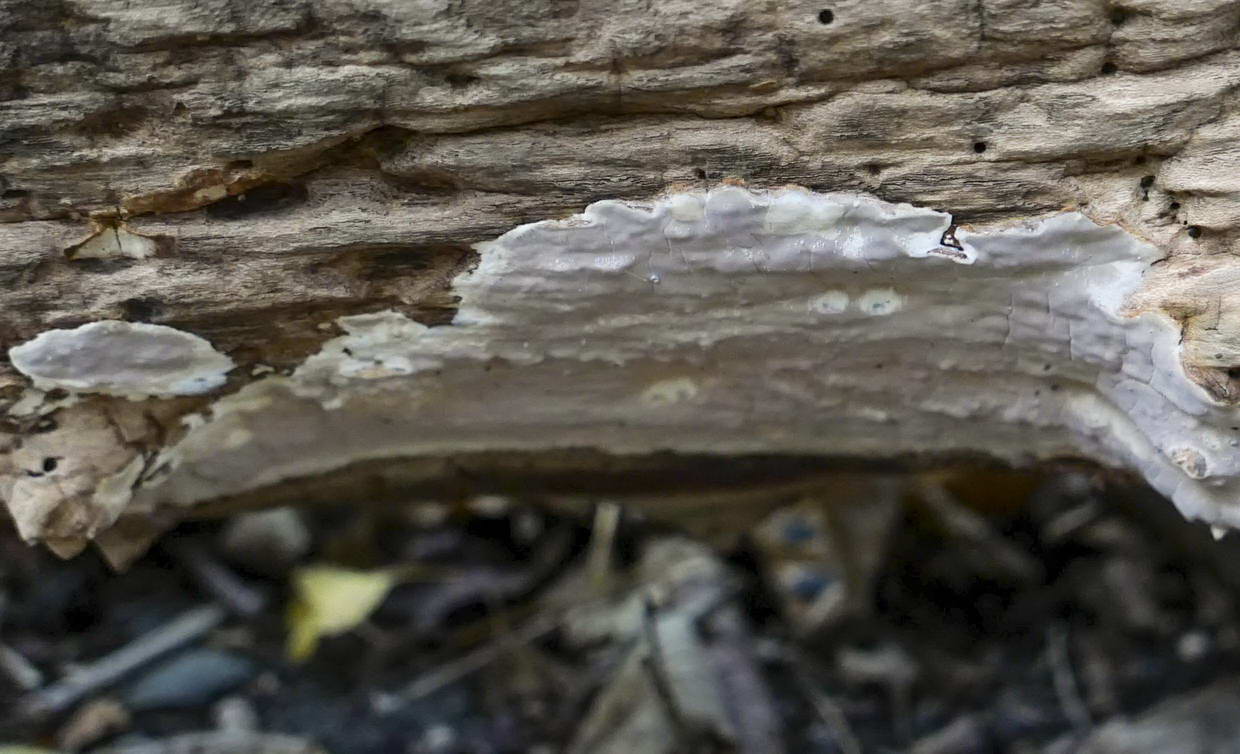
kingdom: Fungi
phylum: Basidiomycota
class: Agaricomycetes
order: Russulales
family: Peniophoraceae
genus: Scytinostroma
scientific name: Scytinostroma hemidichophyticum
